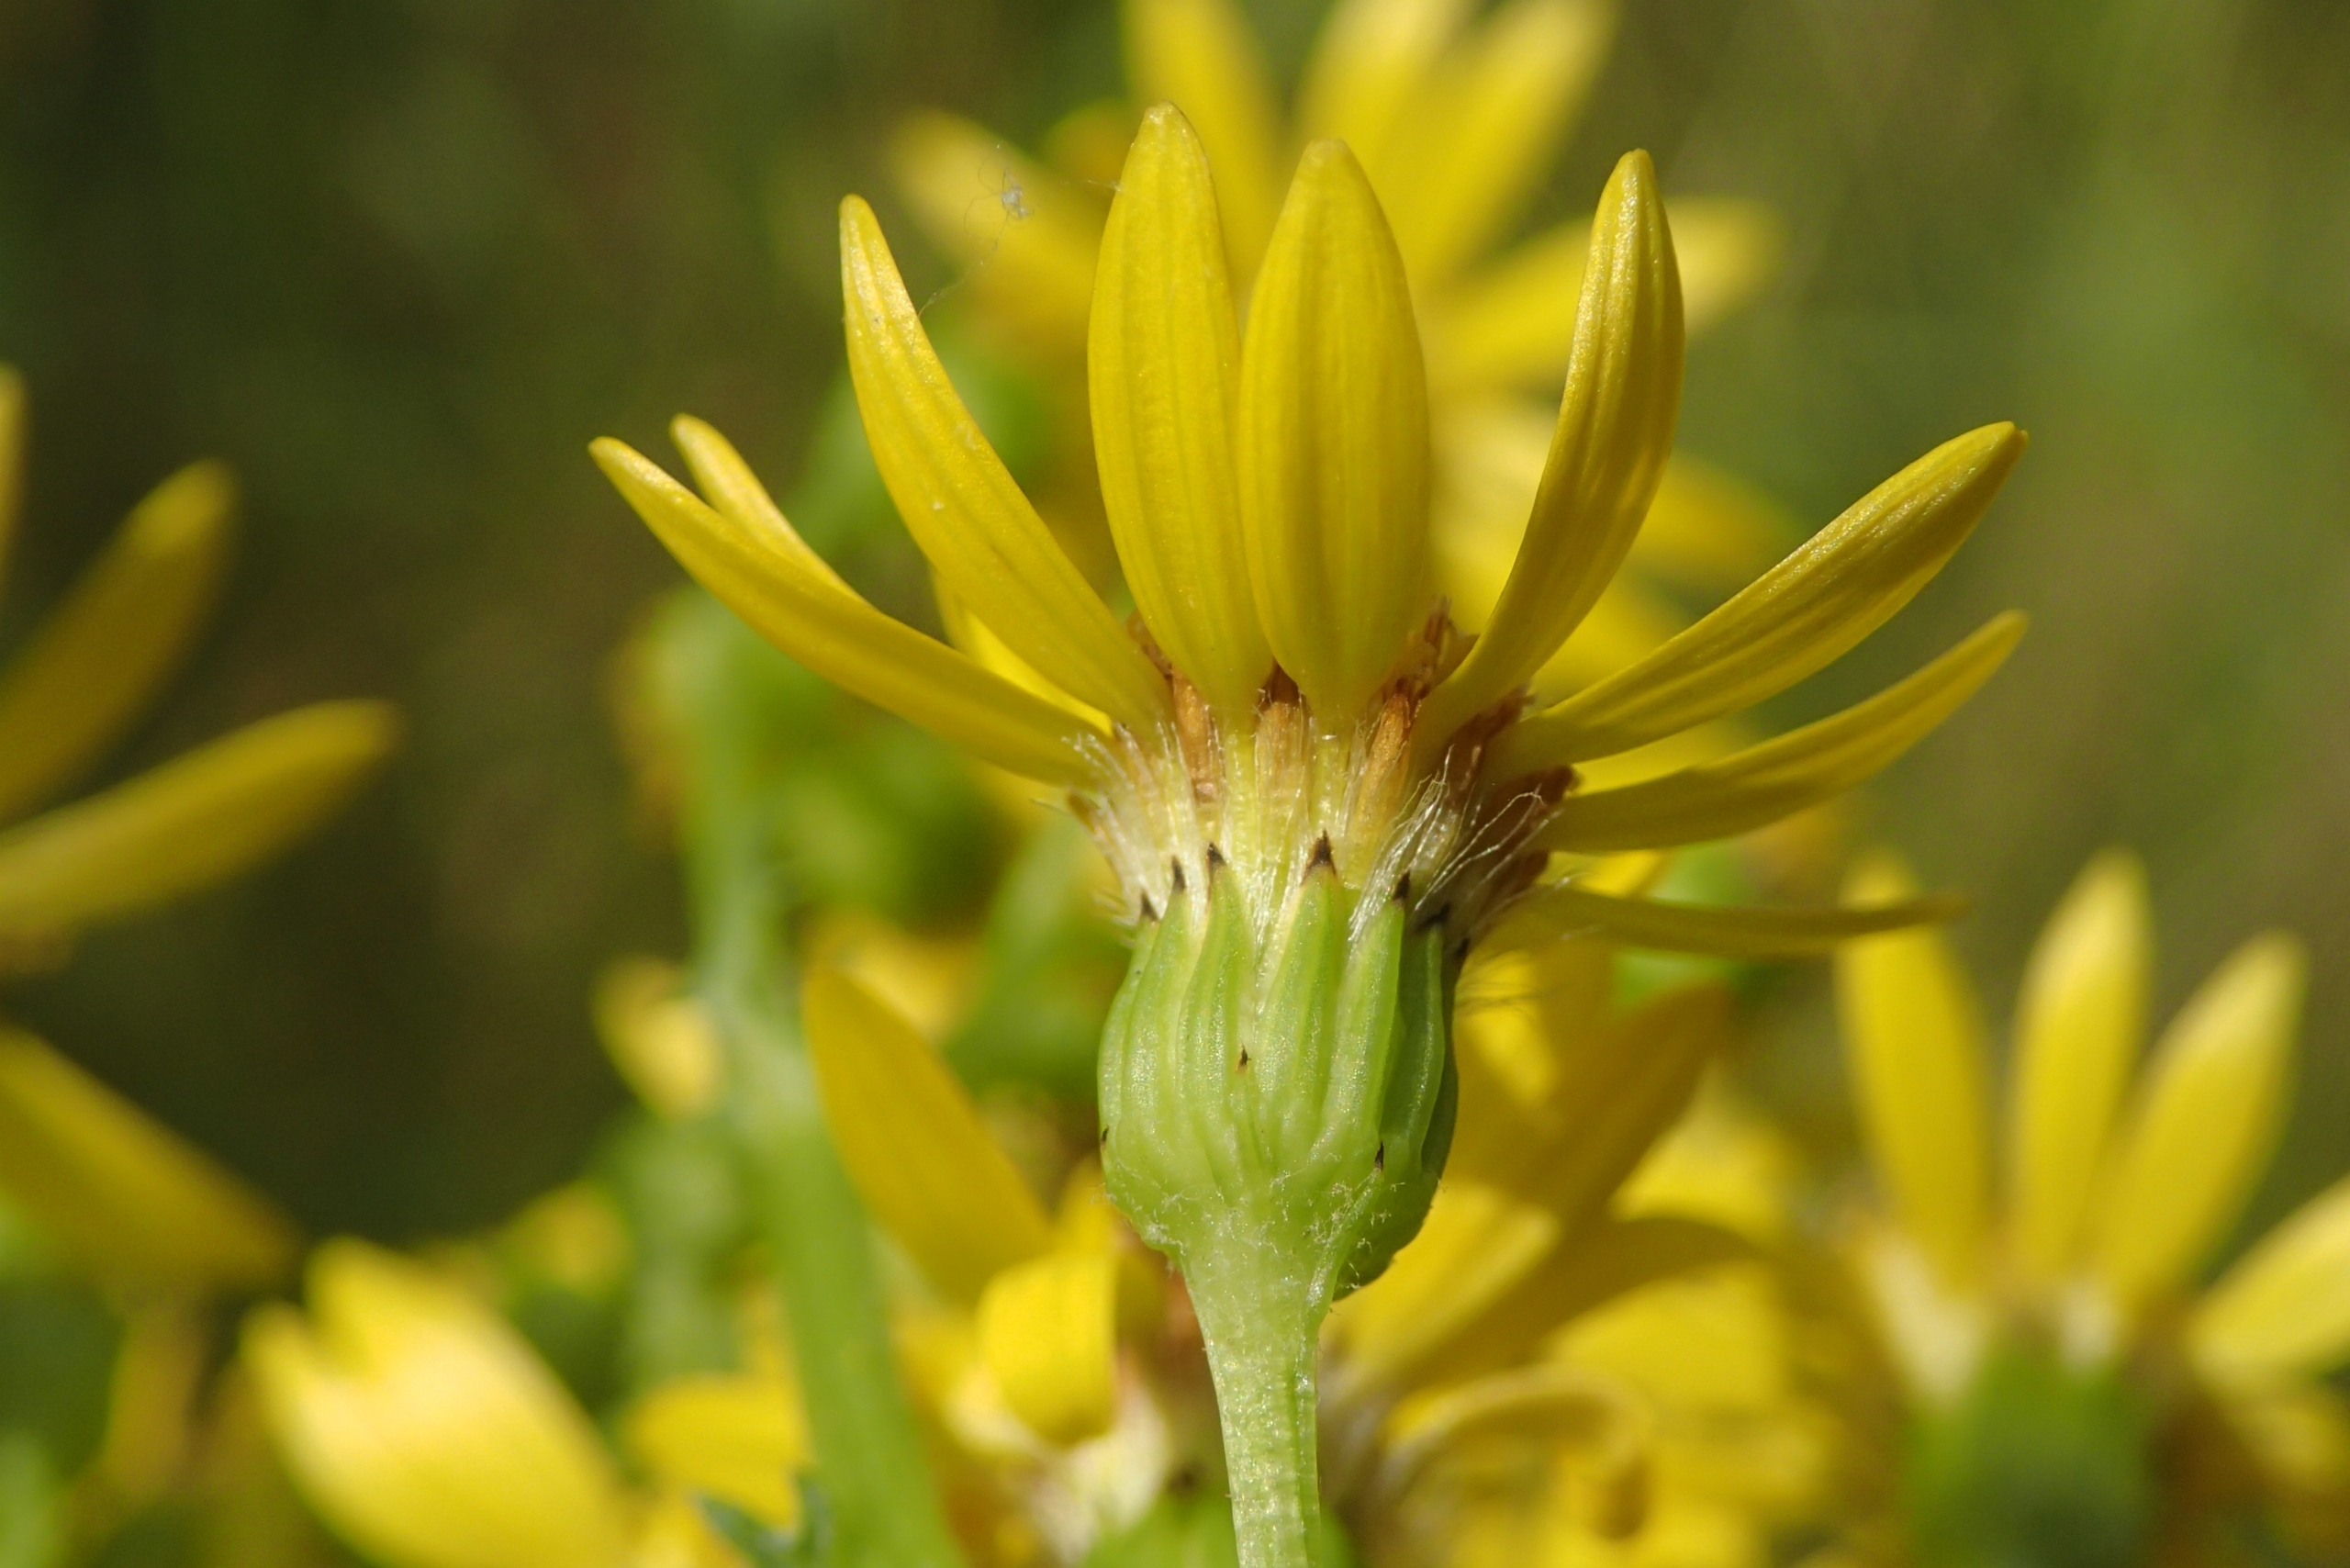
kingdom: Plantae
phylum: Tracheophyta
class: Magnoliopsida
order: Asterales
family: Asteraceae
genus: Jacobaea
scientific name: Jacobaea vulgaris
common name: Eng-brandbæger
